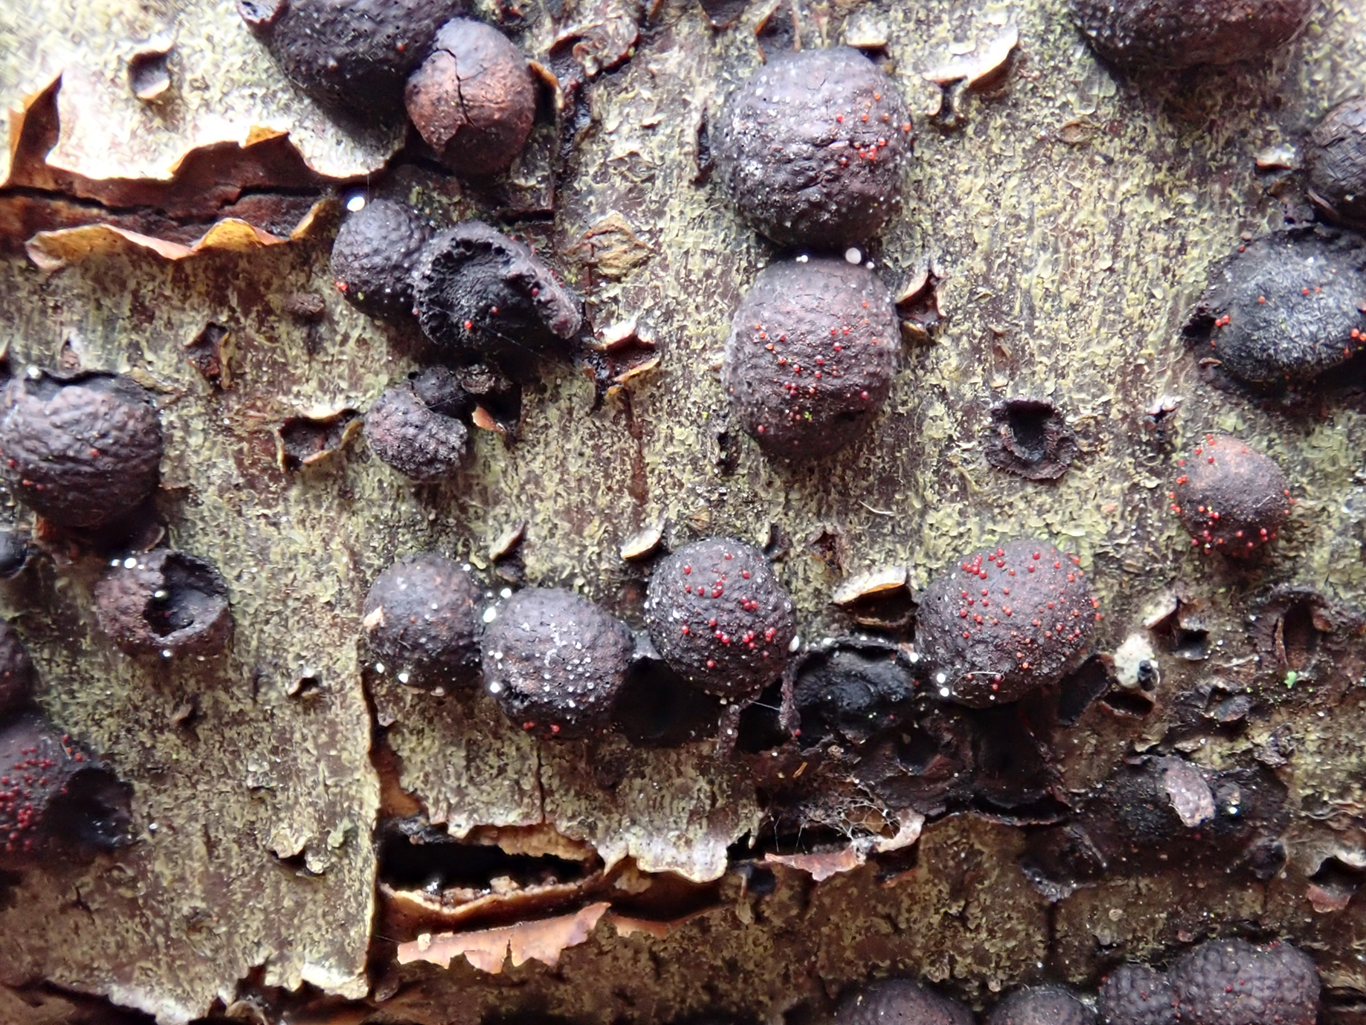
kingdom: Fungi
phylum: Ascomycota
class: Sordariomycetes
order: Hypocreales
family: Nectriaceae
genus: Cosmospora
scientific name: Cosmospora arxii
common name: kuljordbær-cinnobersvamp
